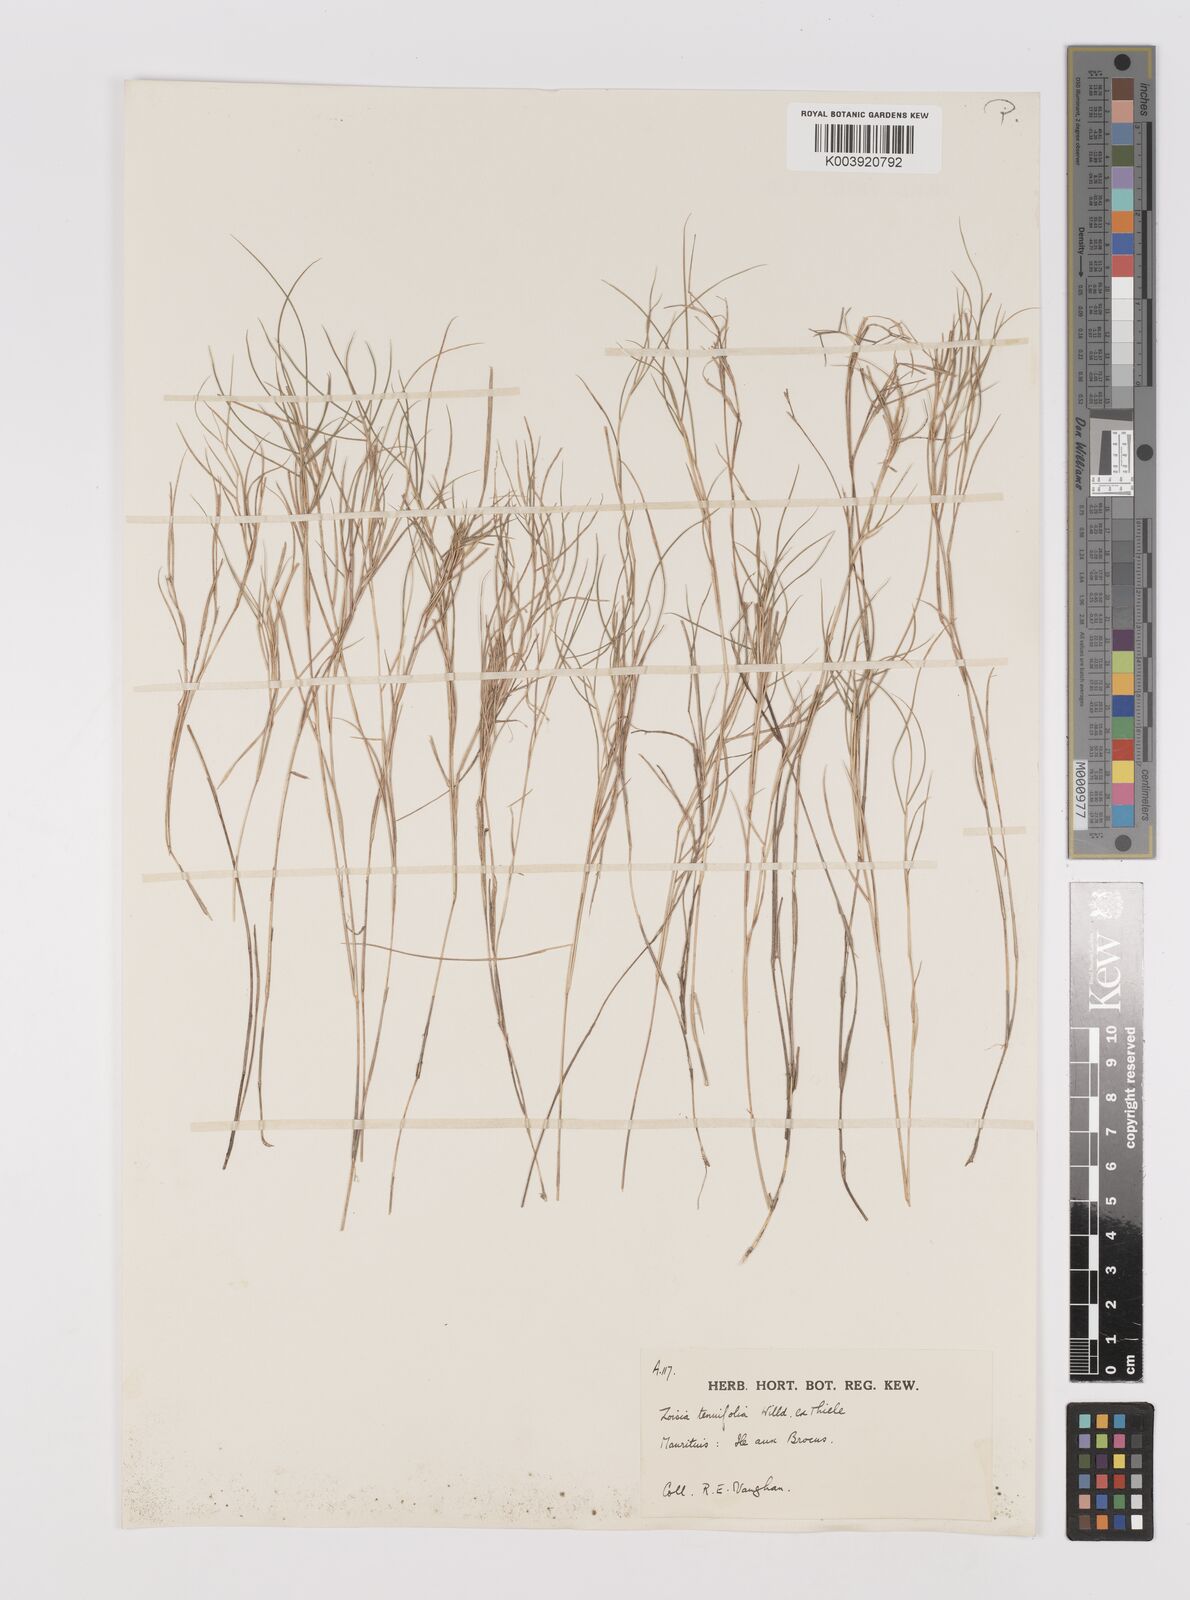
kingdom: Plantae
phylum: Tracheophyta
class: Liliopsida
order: Poales
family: Poaceae
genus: Zoysia
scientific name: Zoysia matrella
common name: Manila grass
